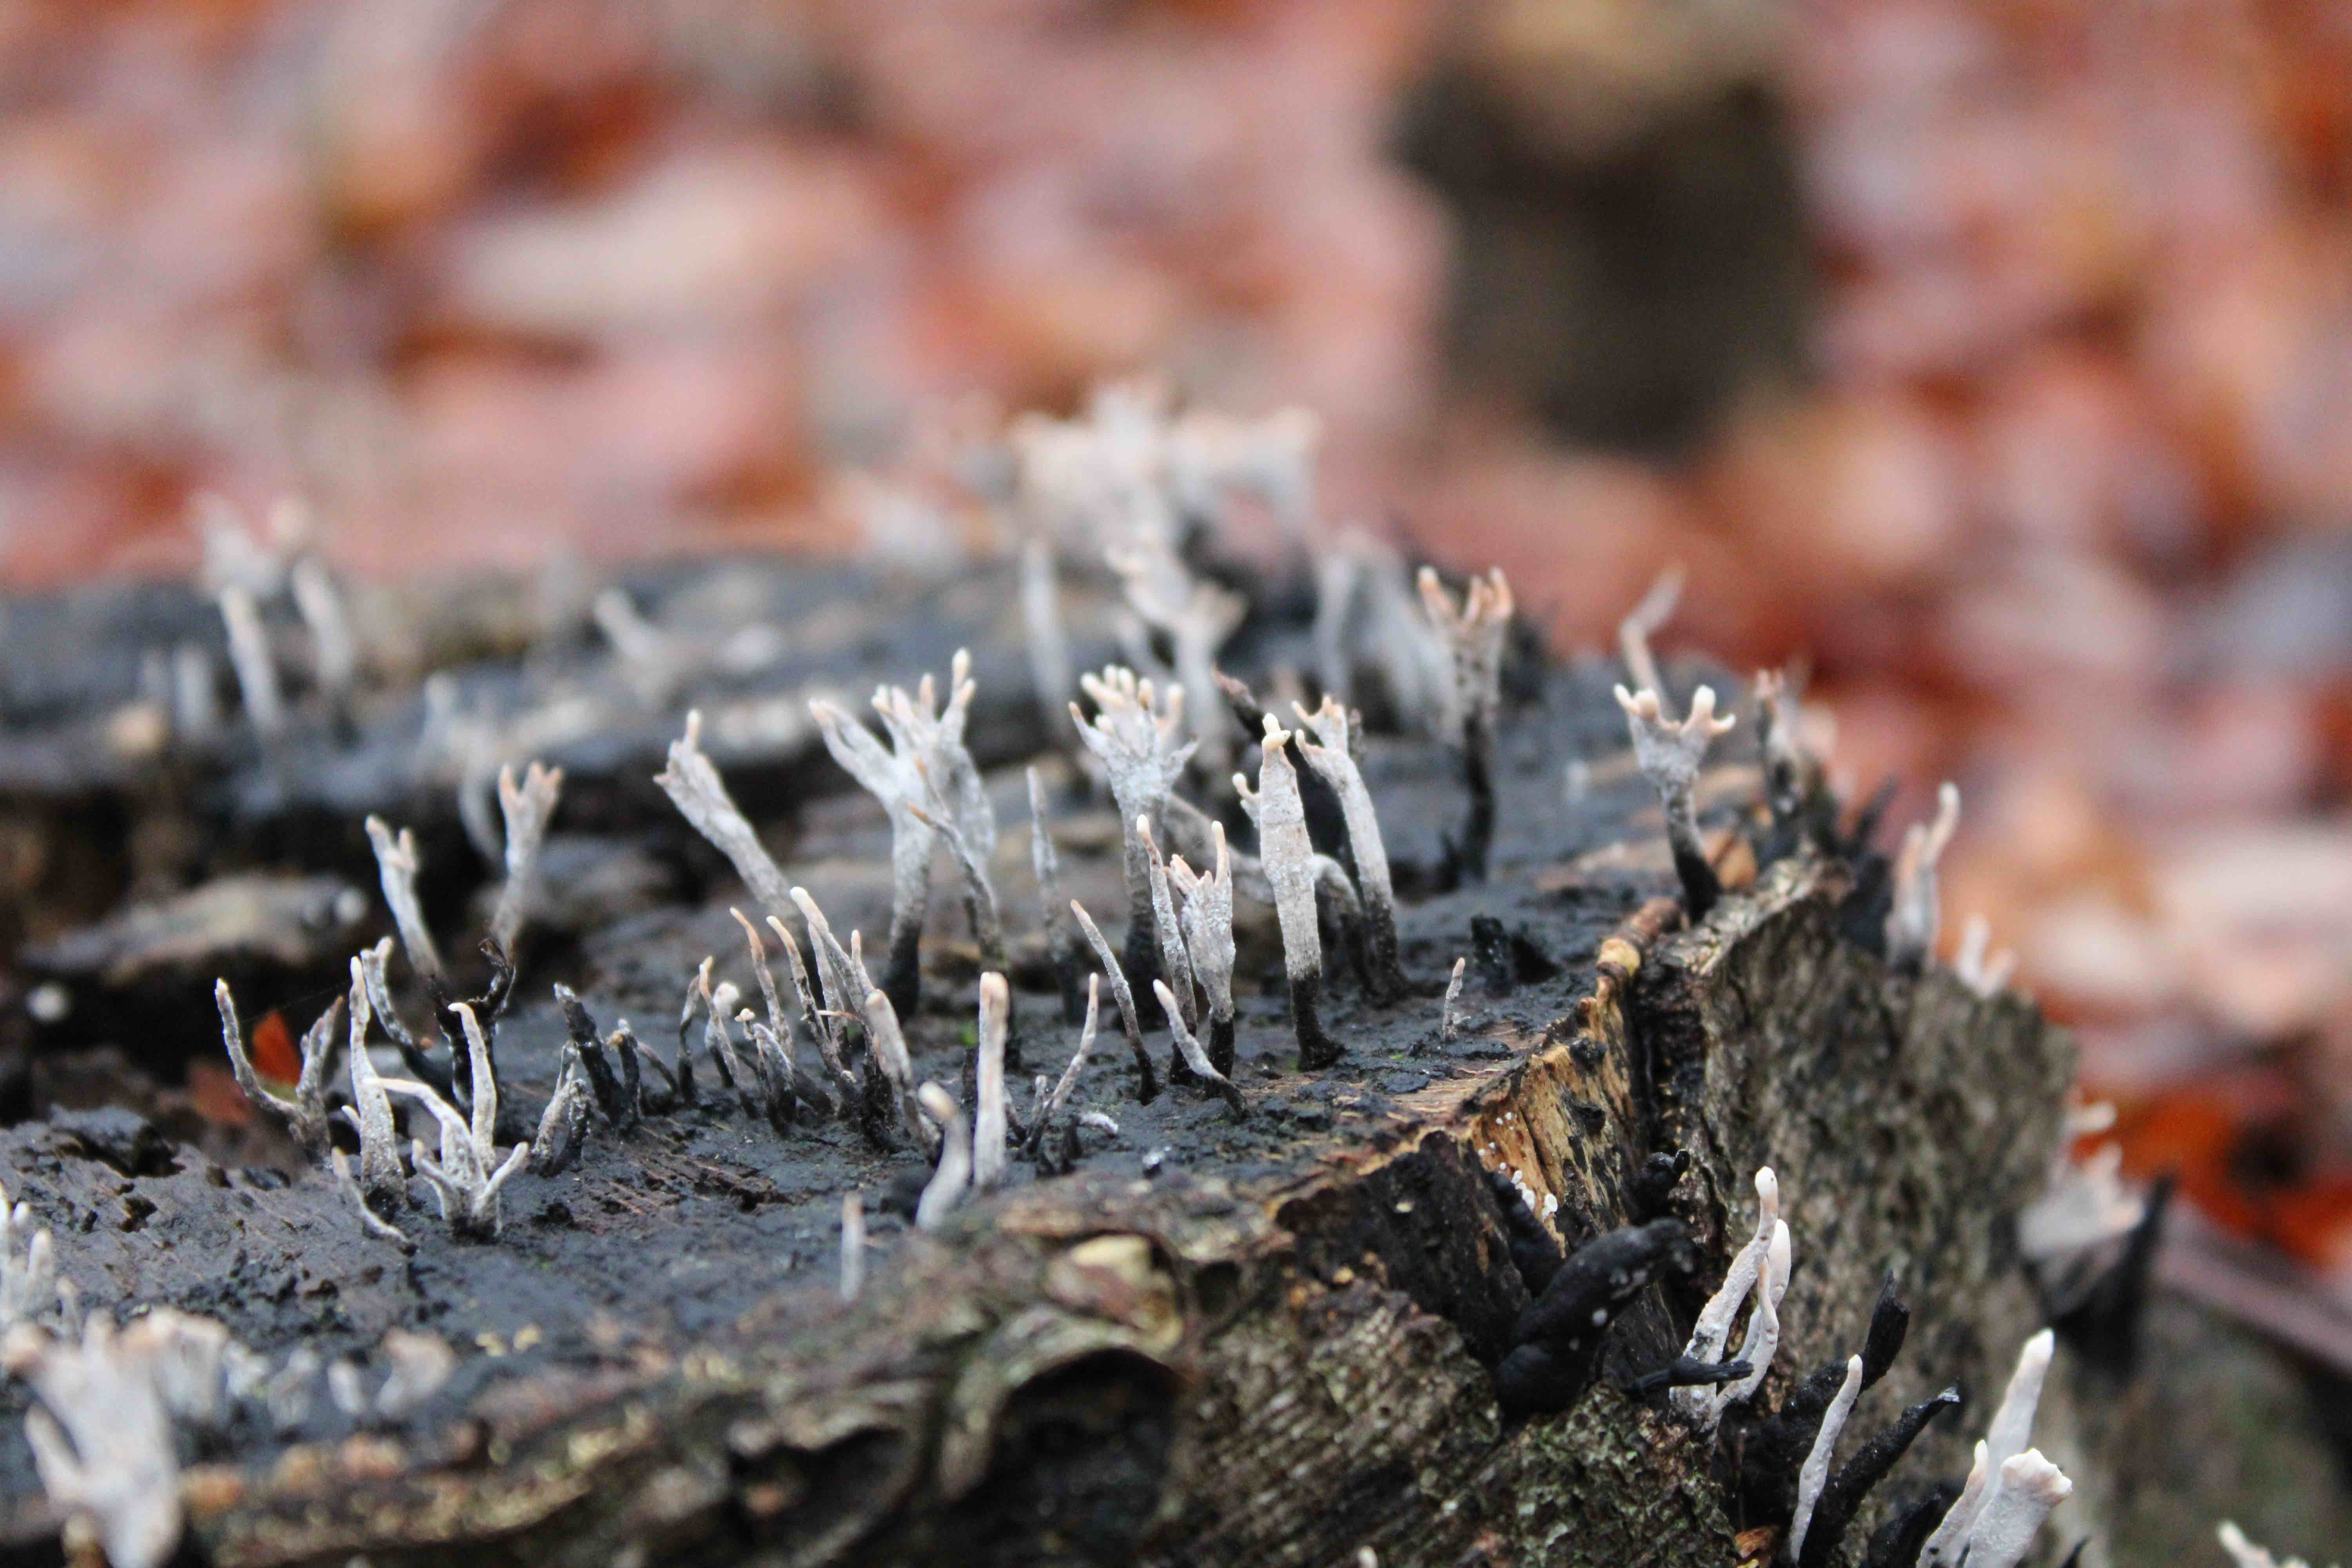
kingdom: Fungi
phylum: Ascomycota
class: Sordariomycetes
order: Xylariales
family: Xylariaceae
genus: Xylaria
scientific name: Xylaria hypoxylon
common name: grenet stødsvamp
